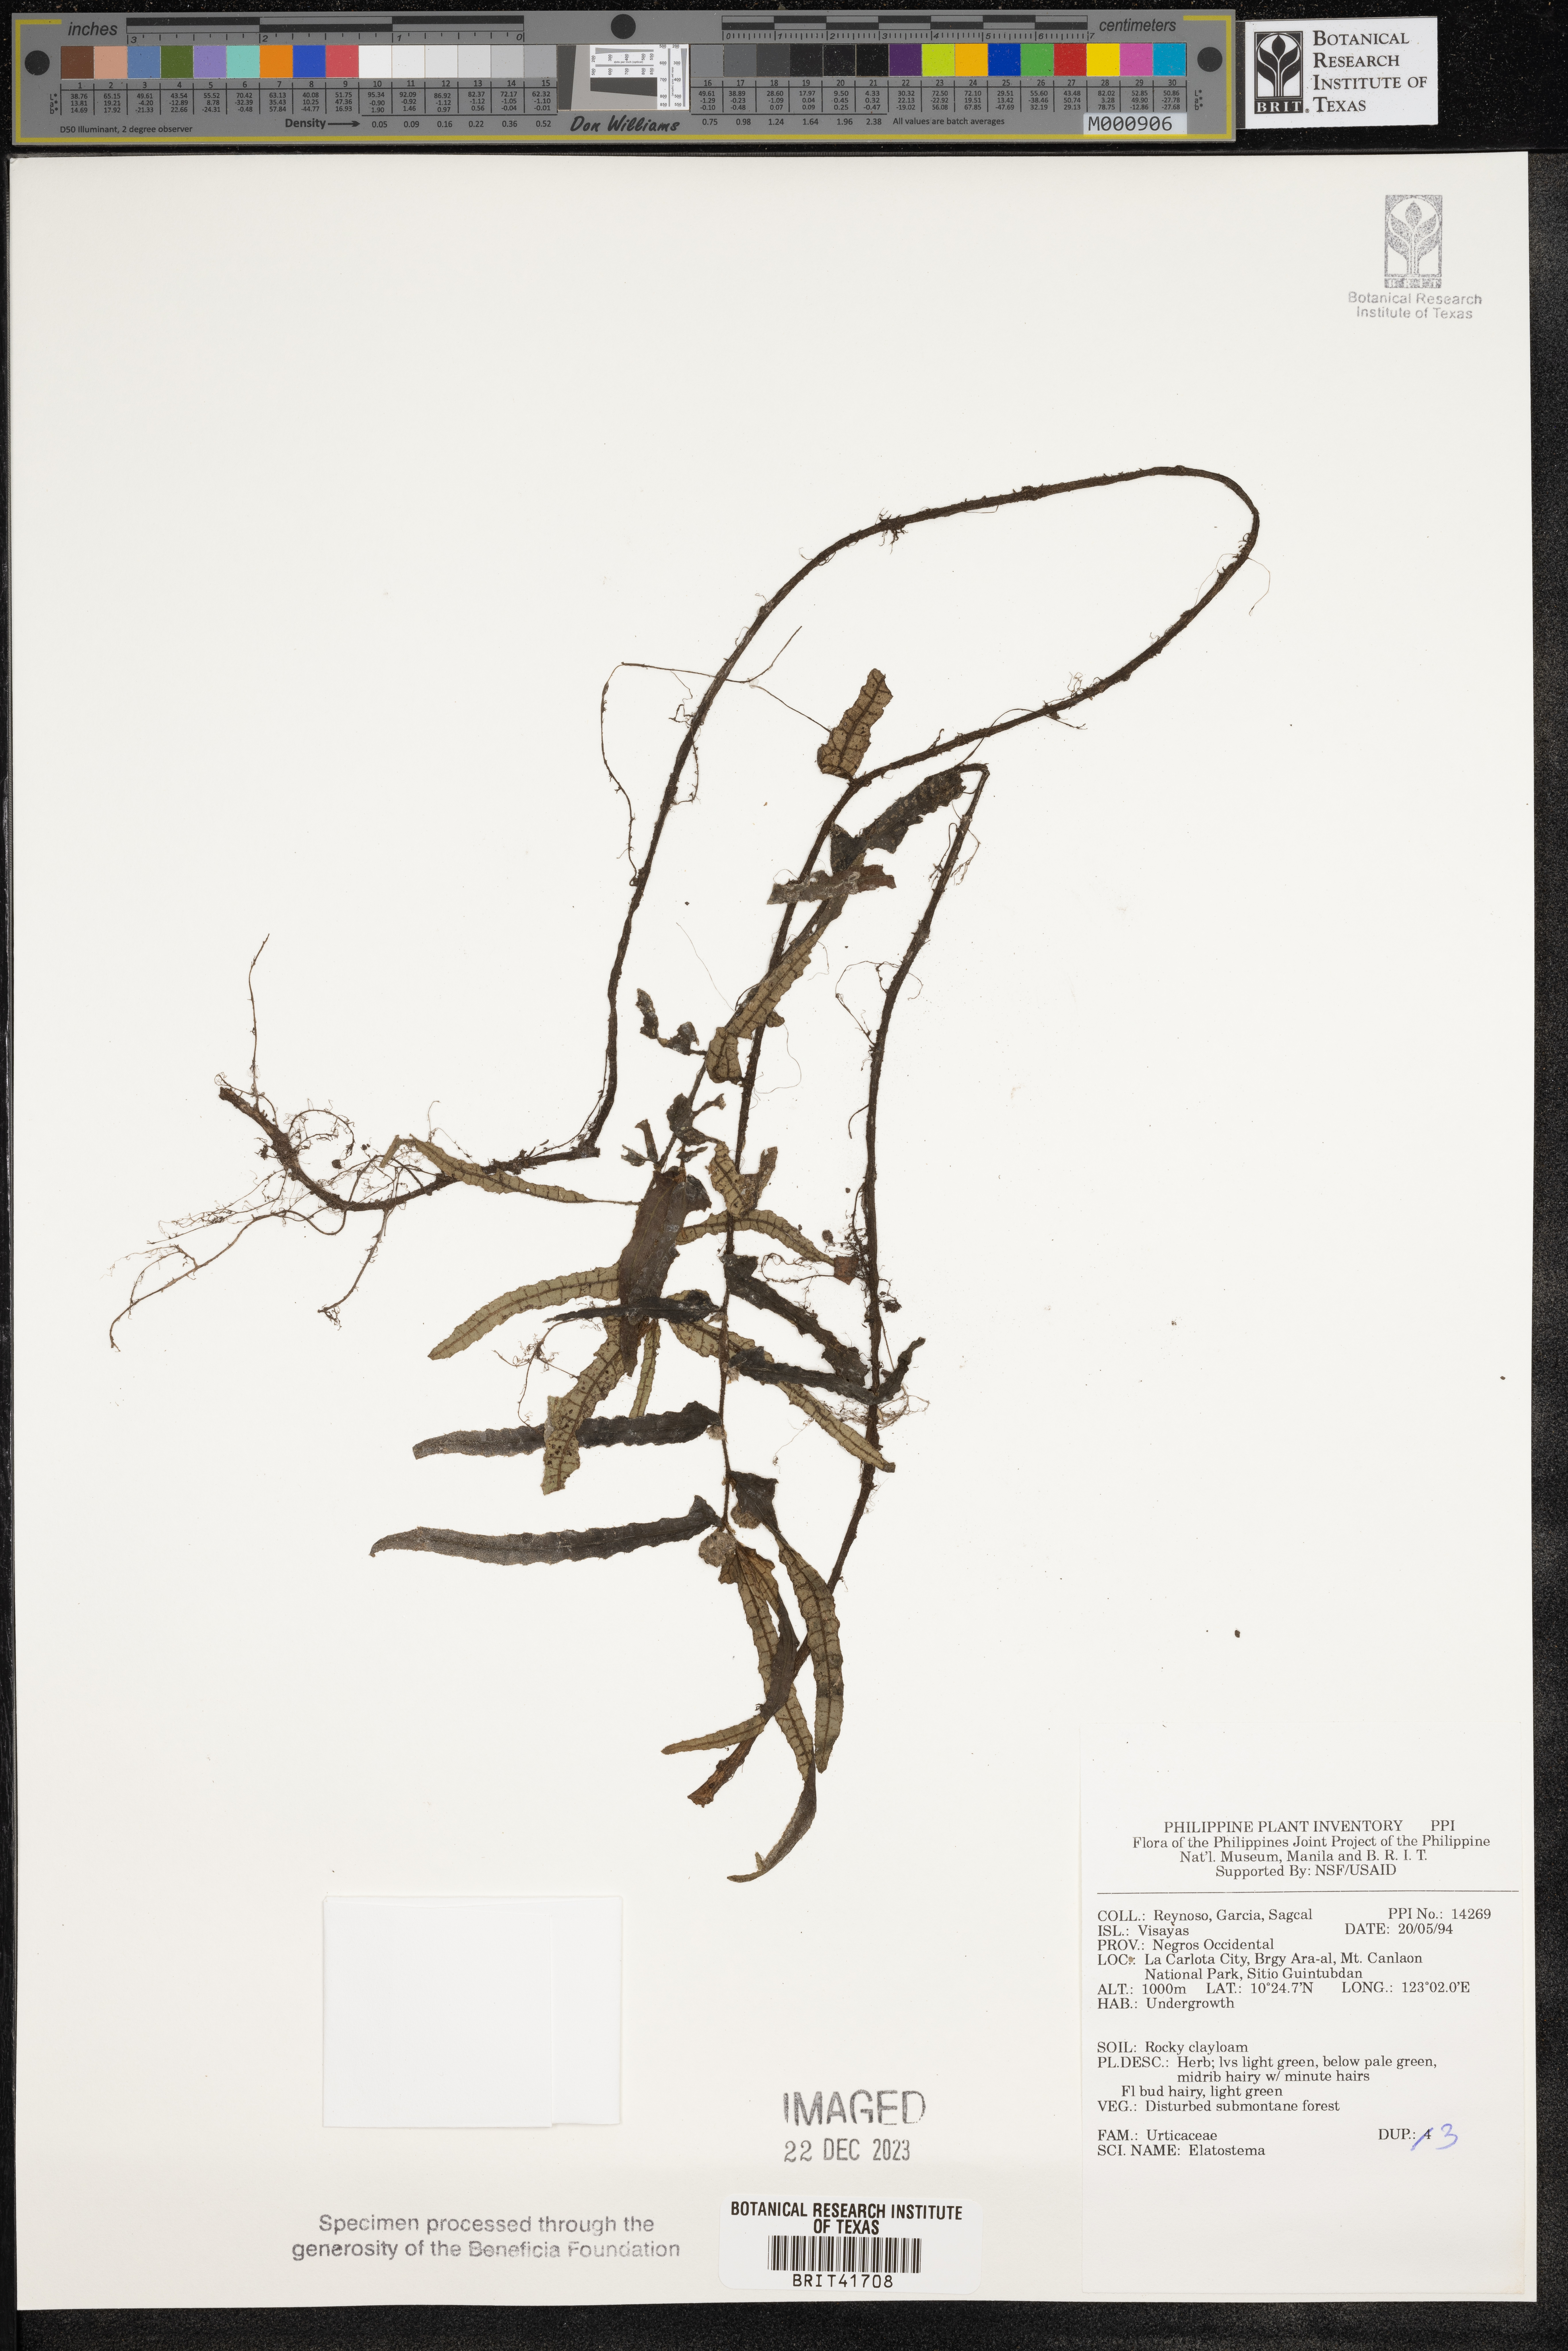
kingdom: Plantae
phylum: Tracheophyta
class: Magnoliopsida
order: Rosales
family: Urticaceae
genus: Elatostema
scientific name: Elatostema
